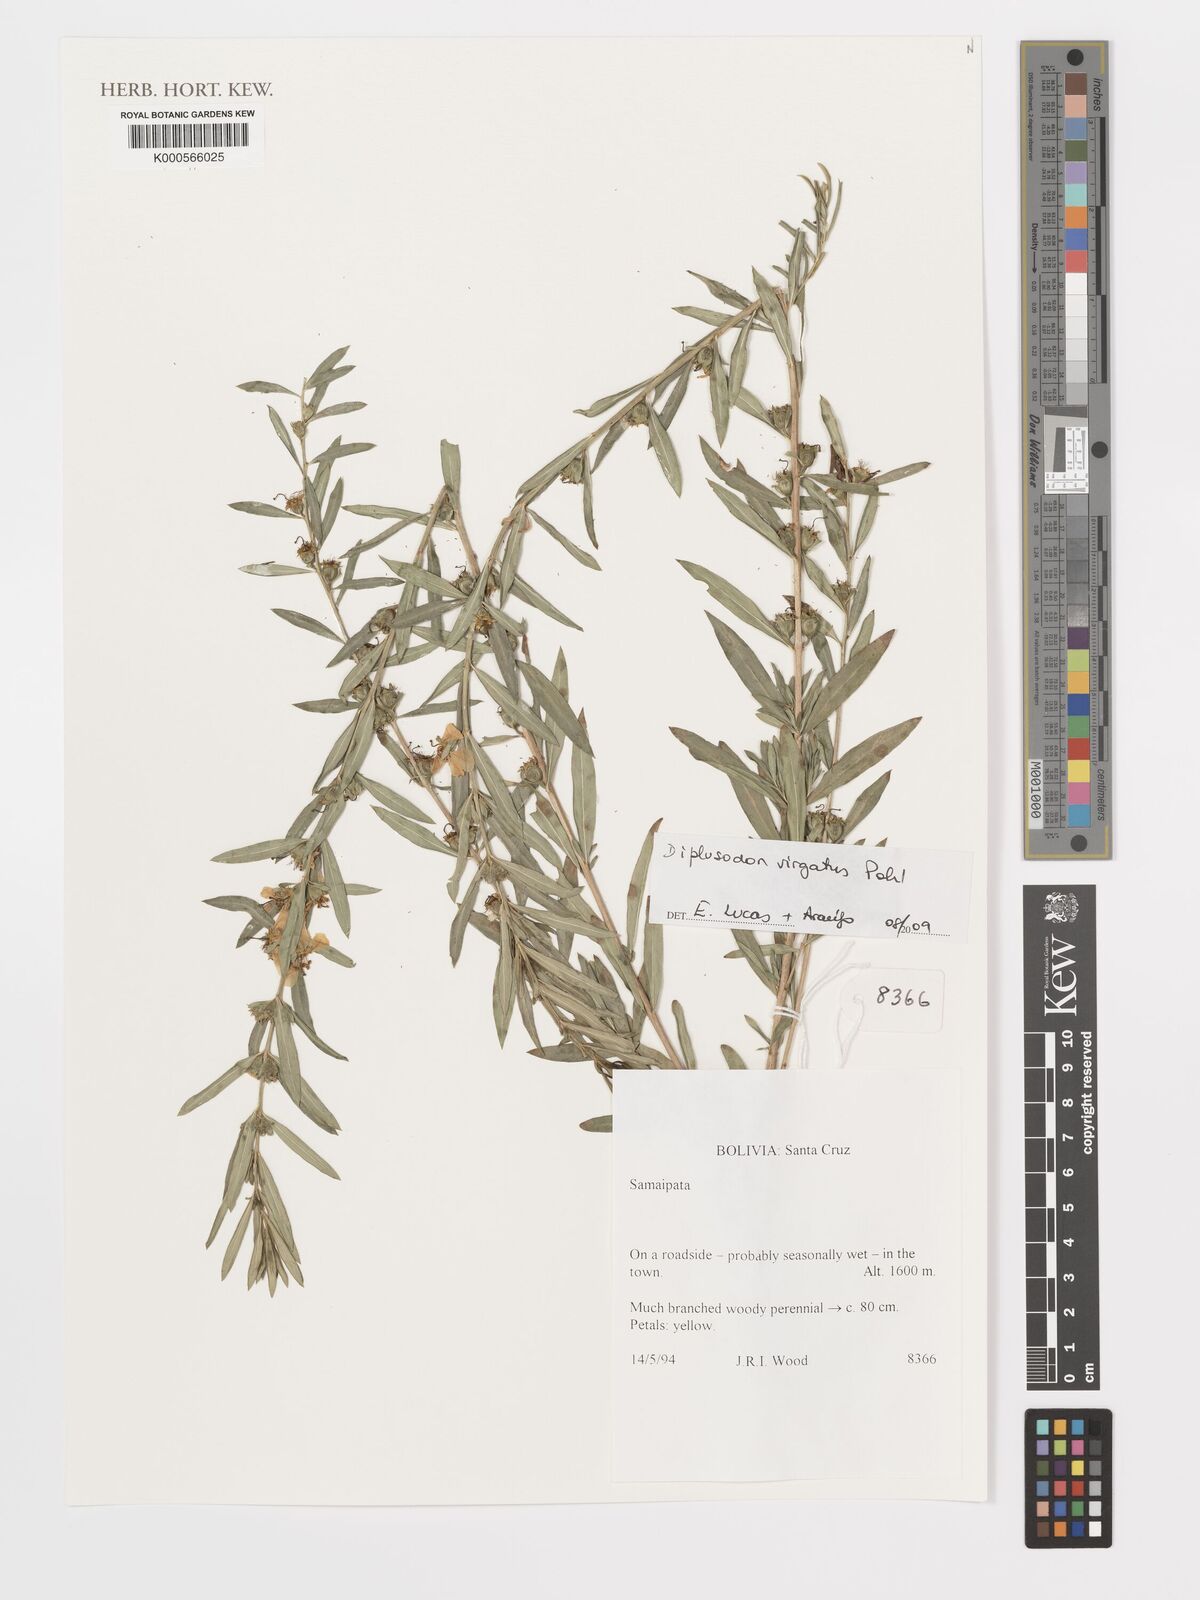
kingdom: Plantae
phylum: Tracheophyta
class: Magnoliopsida
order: Myrtales
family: Lythraceae
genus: Diplusodon
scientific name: Diplusodon virgatus
